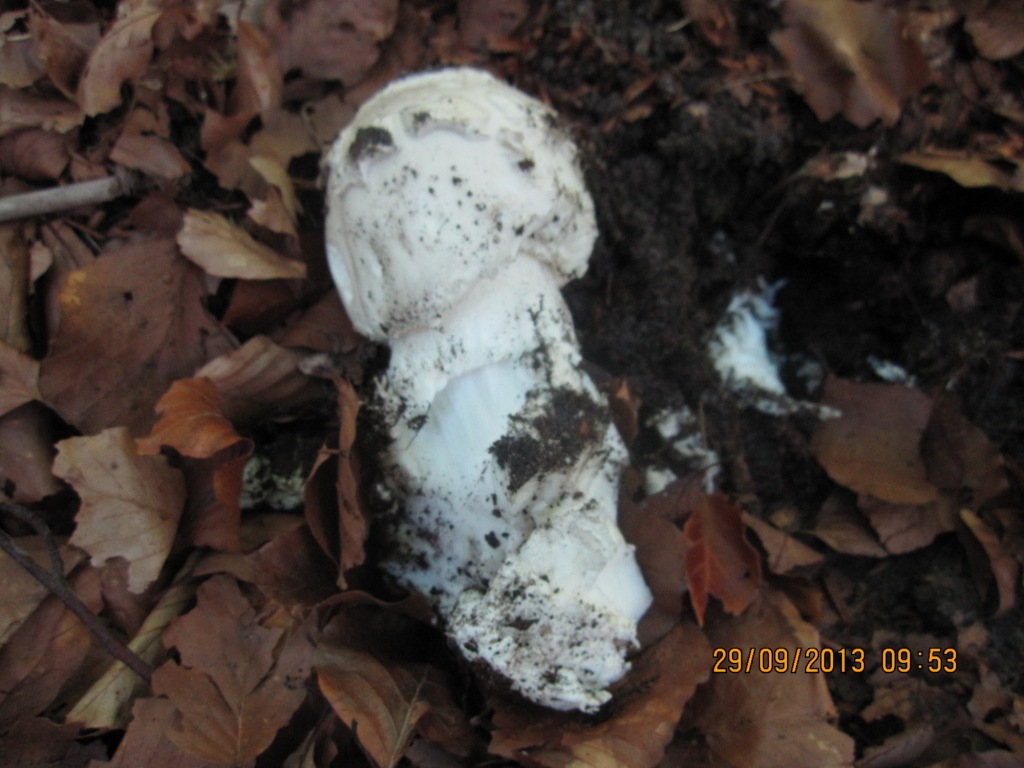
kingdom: Fungi
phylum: Basidiomycota
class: Agaricomycetes
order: Agaricales
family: Amanitaceae
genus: Amanita
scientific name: Amanita
